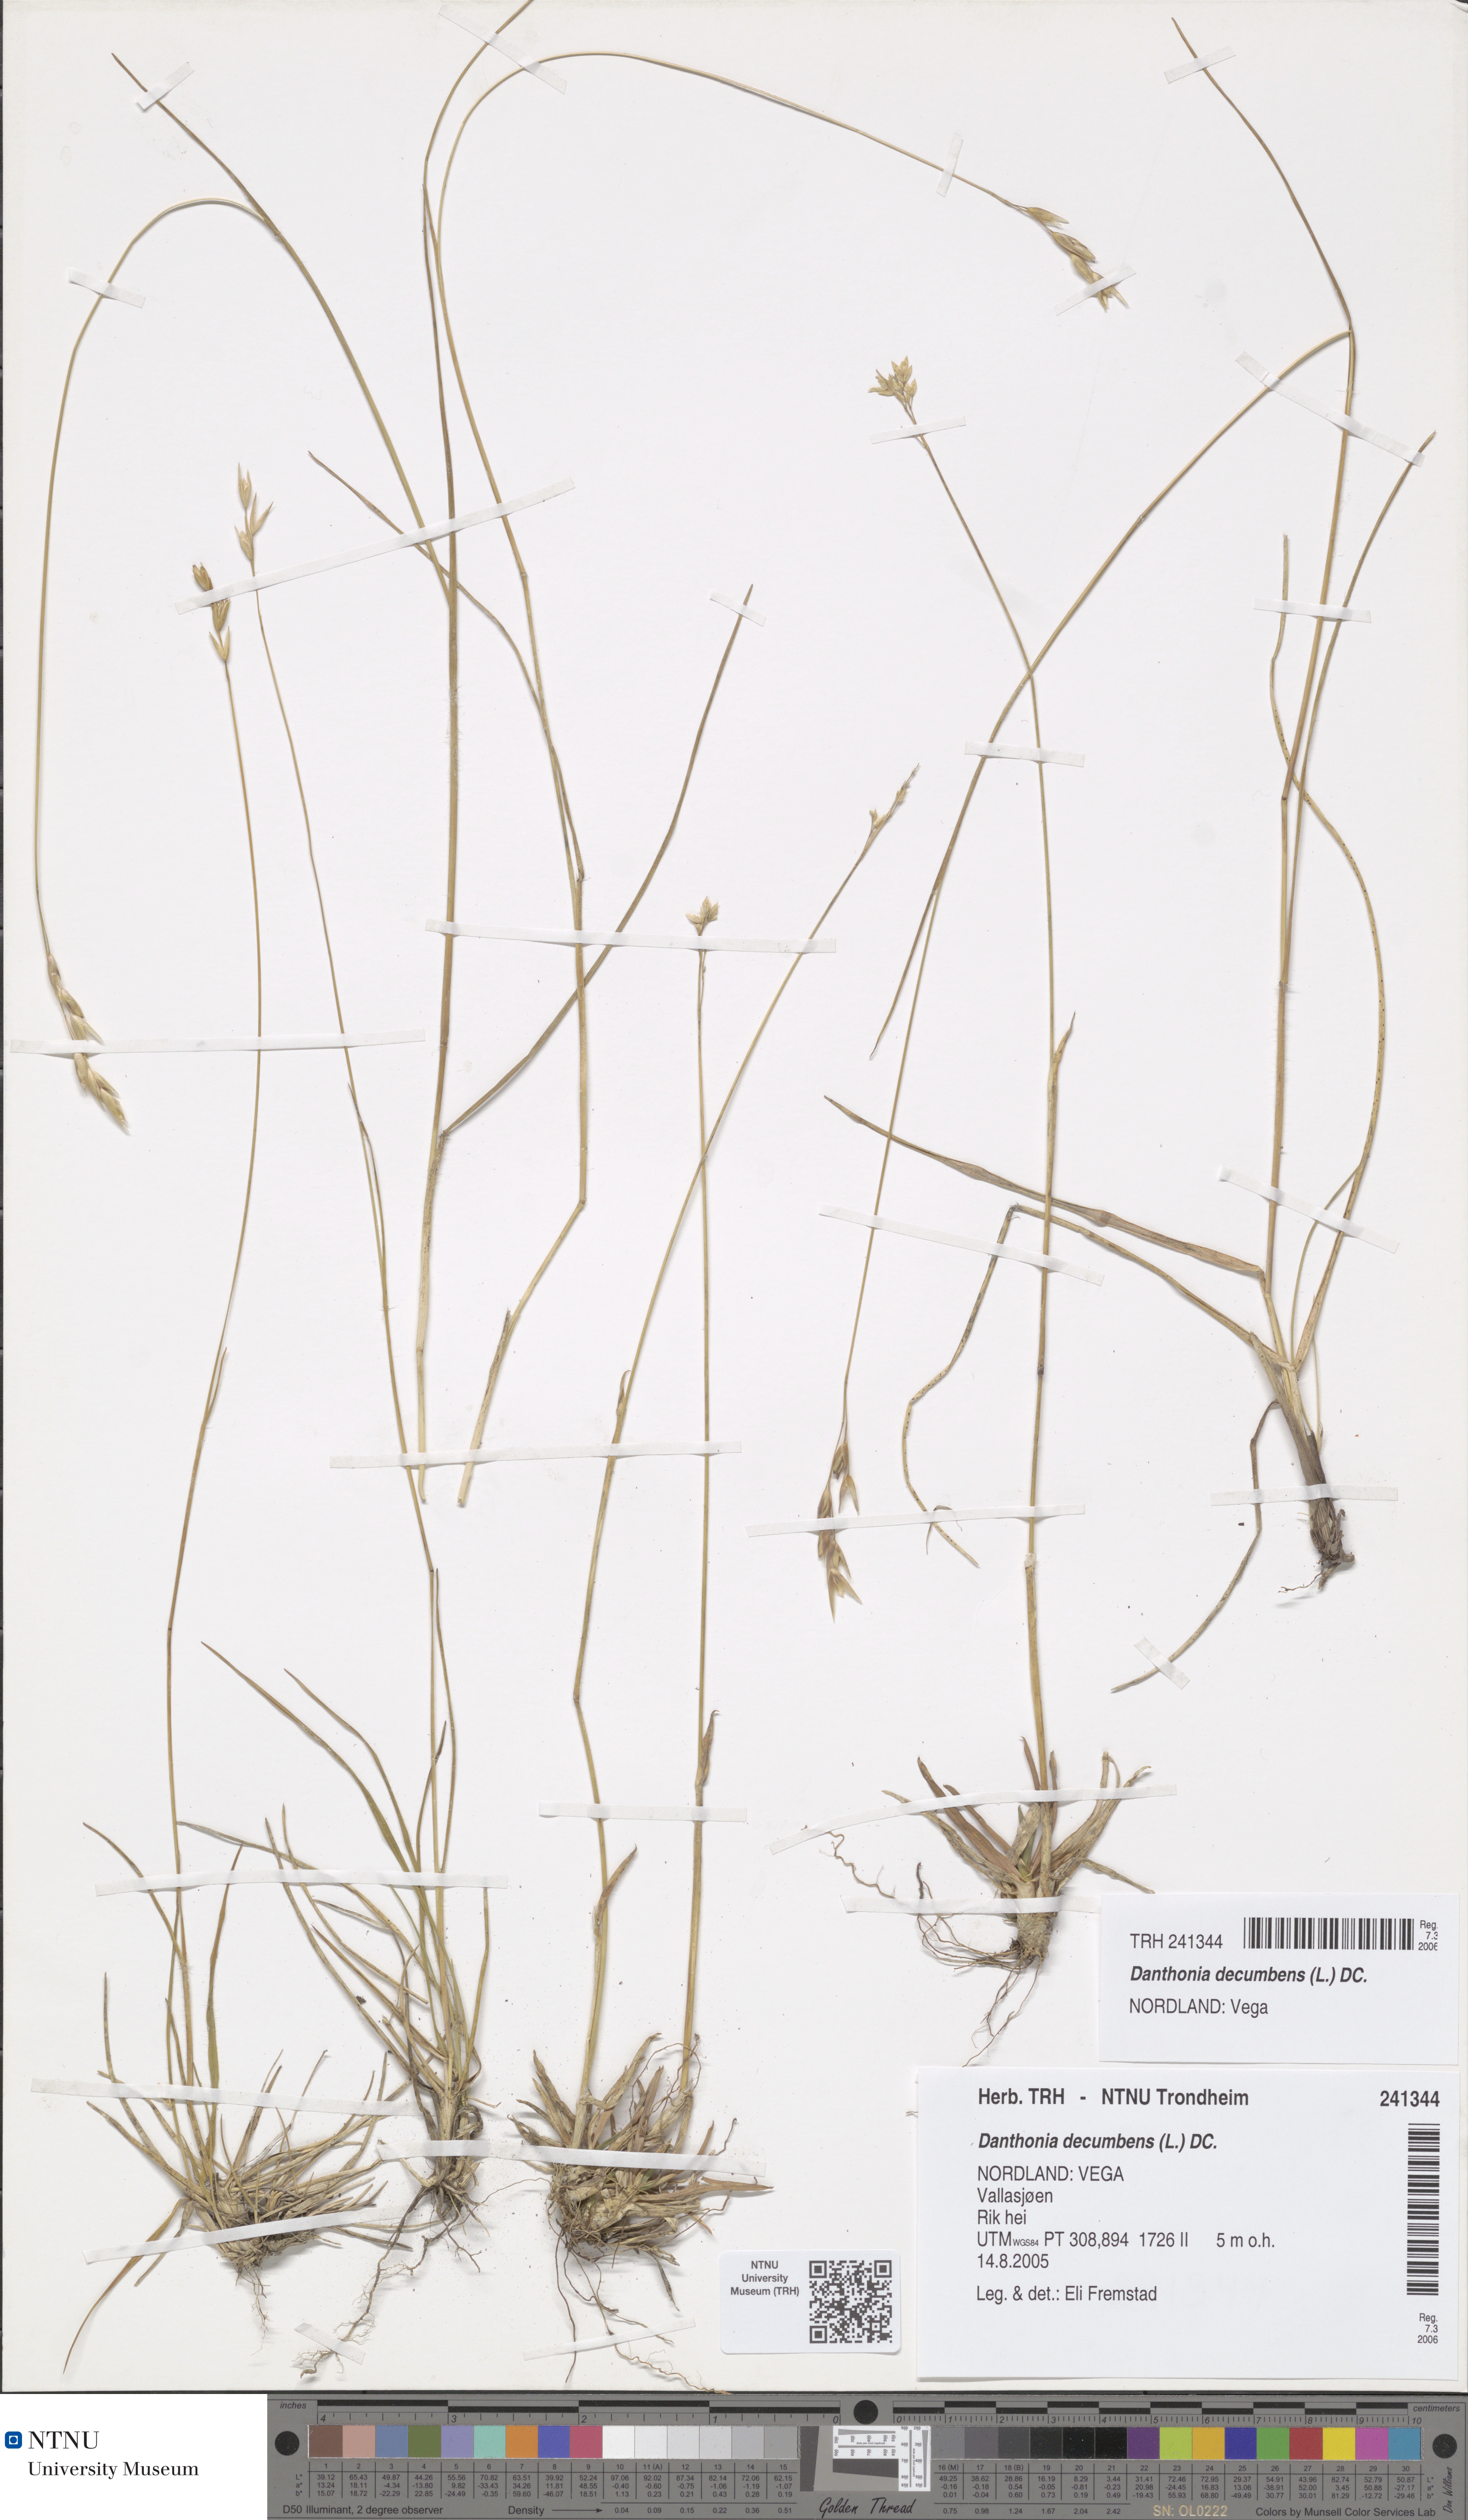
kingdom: Plantae
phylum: Tracheophyta
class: Liliopsida
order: Poales
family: Poaceae
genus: Danthonia
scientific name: Danthonia decumbens
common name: Common heathgrass
